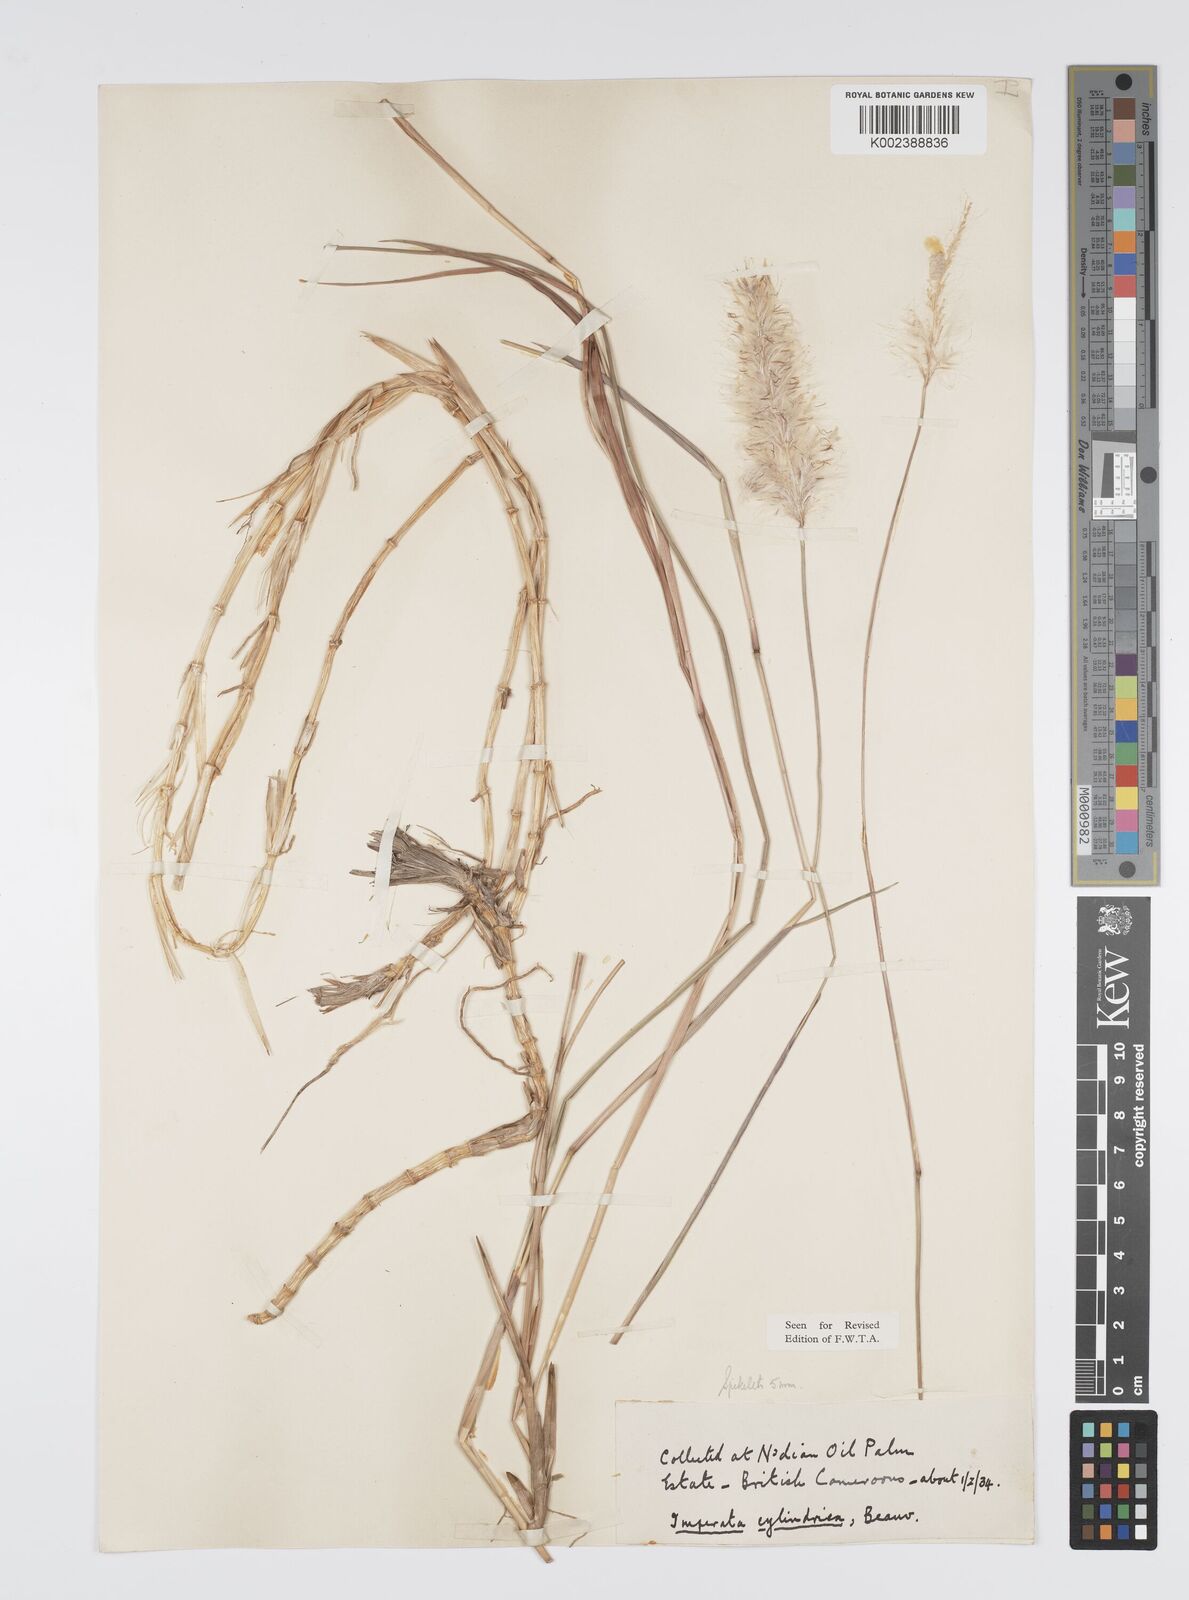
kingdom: Plantae
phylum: Tracheophyta
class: Liliopsida
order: Poales
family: Poaceae
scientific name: Poaceae
